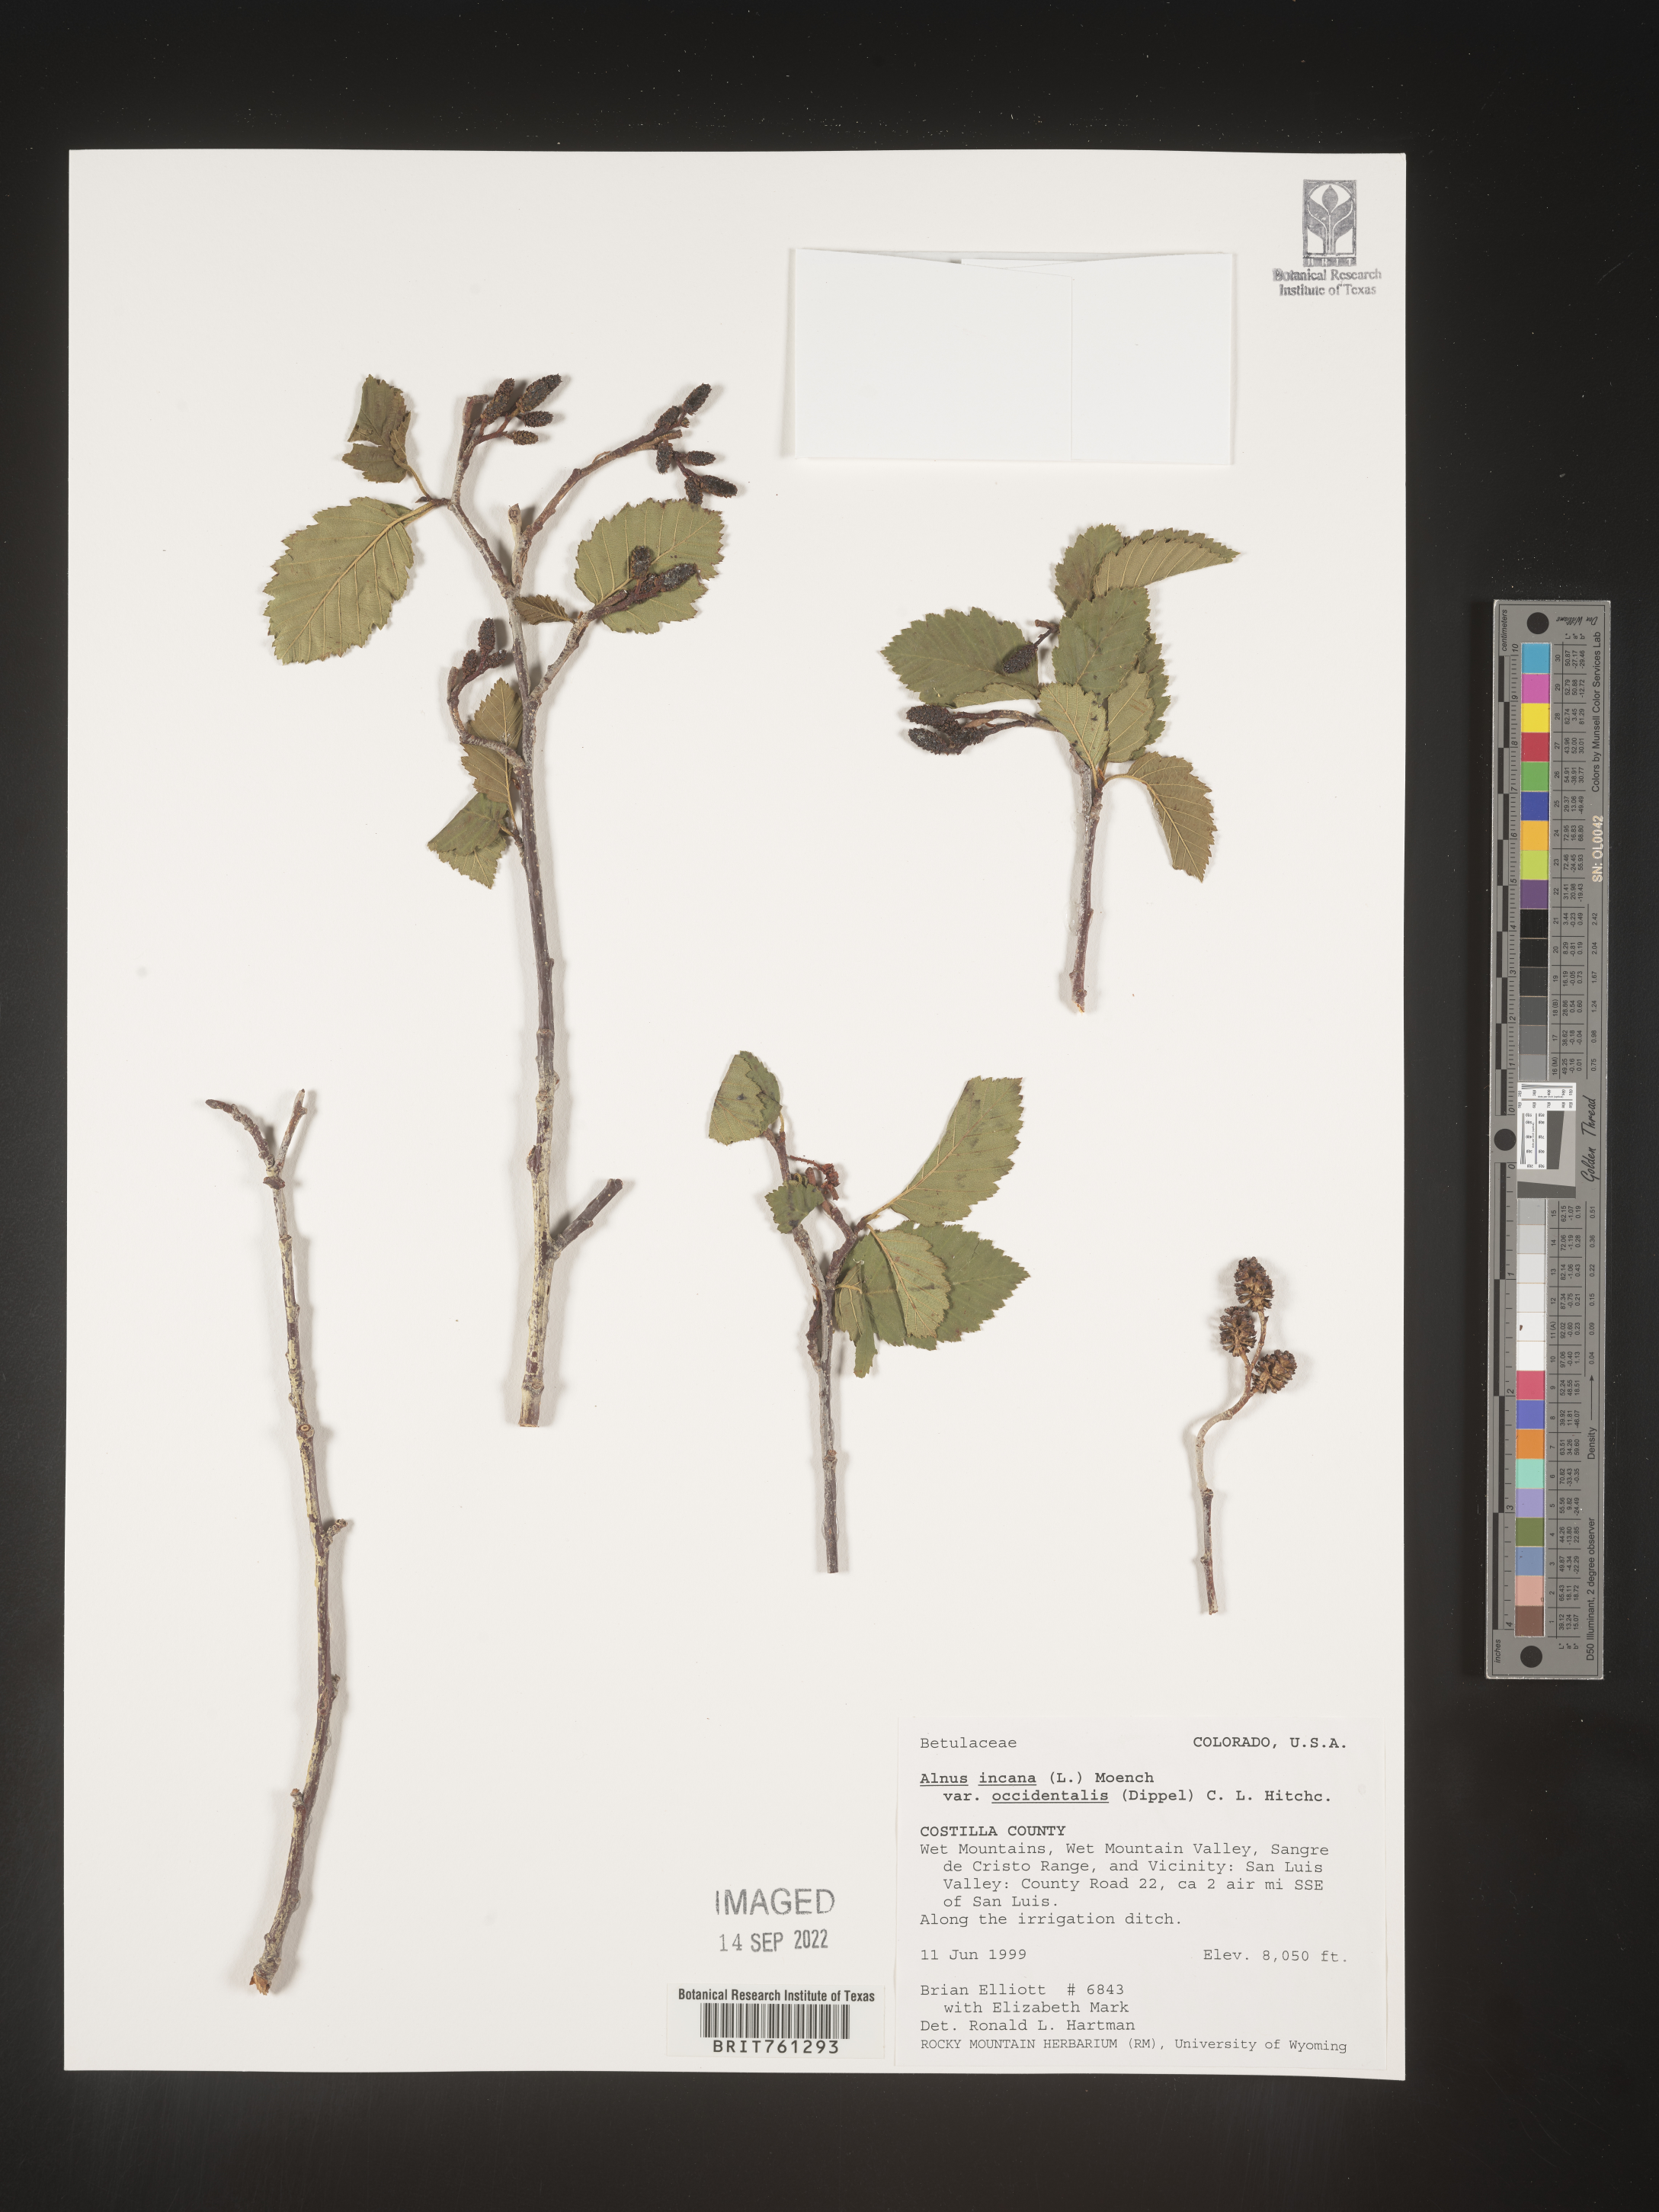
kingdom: Plantae
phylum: Tracheophyta
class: Magnoliopsida
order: Fagales
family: Betulaceae
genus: Alnus
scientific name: Alnus incana
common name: Grey alder
